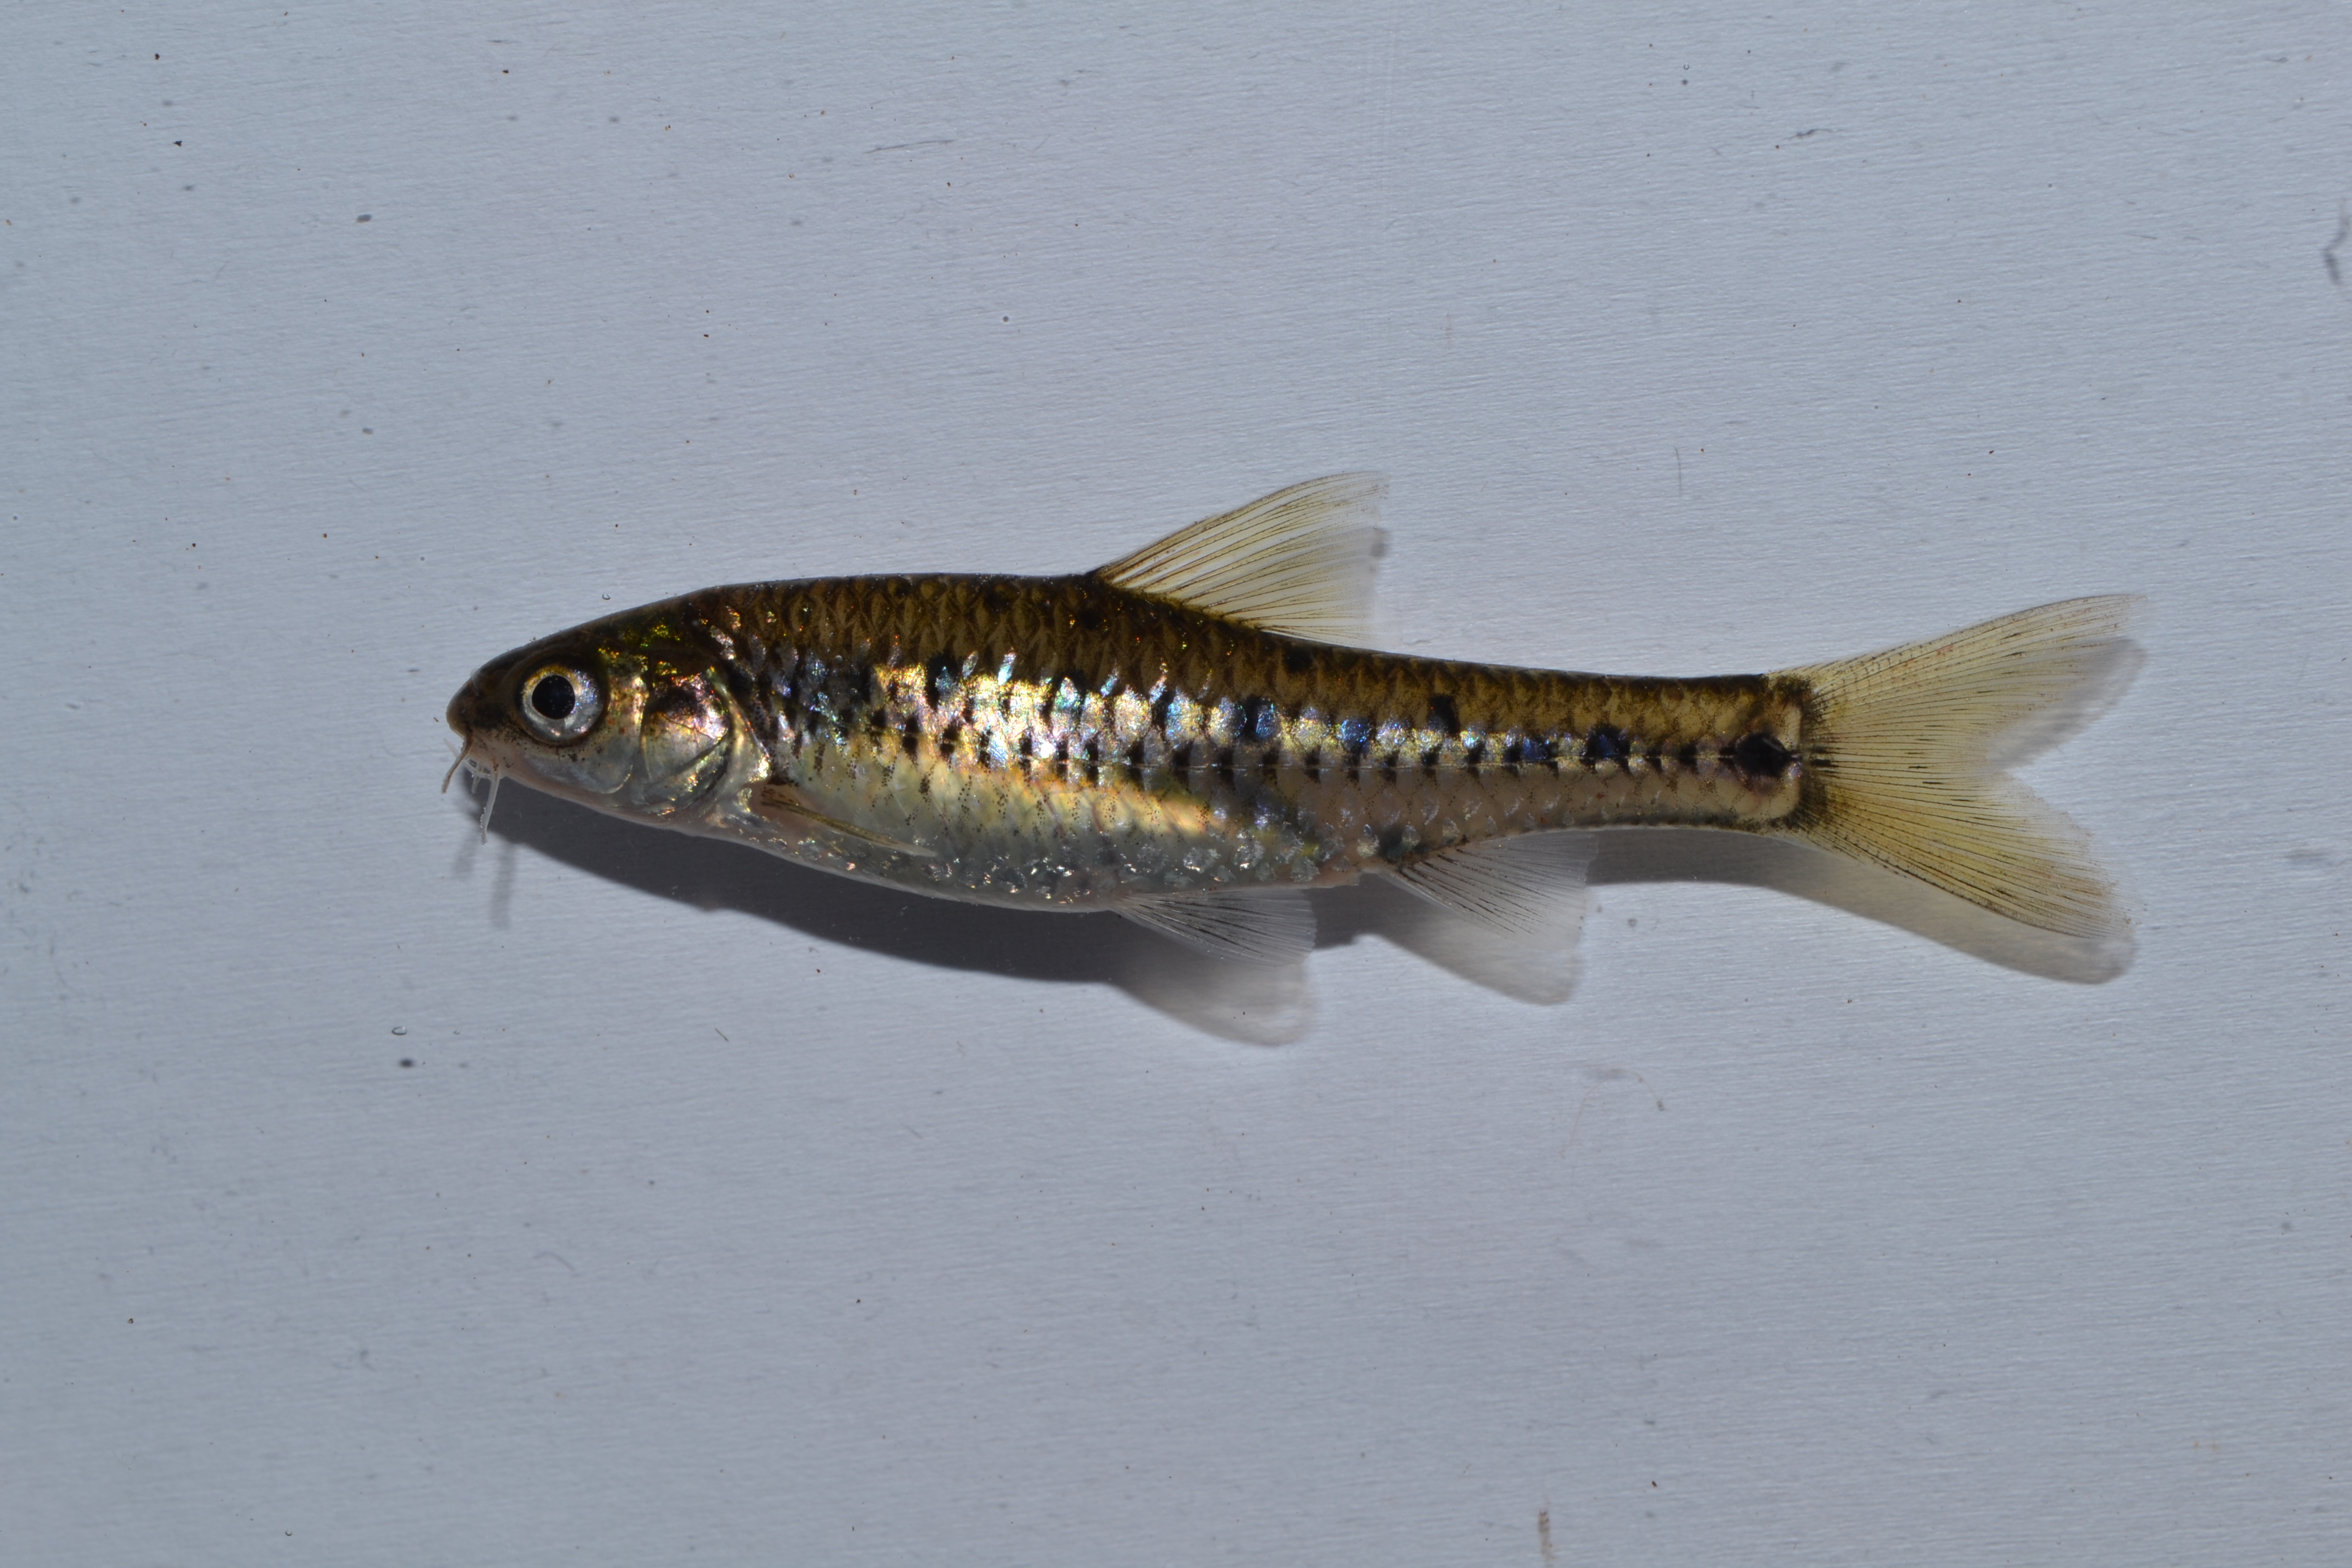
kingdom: Animalia
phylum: Chordata
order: Cypriniformes
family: Cyprinidae
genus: Enteromius
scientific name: Enteromius lineomaculatus
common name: Line-spotted barb
